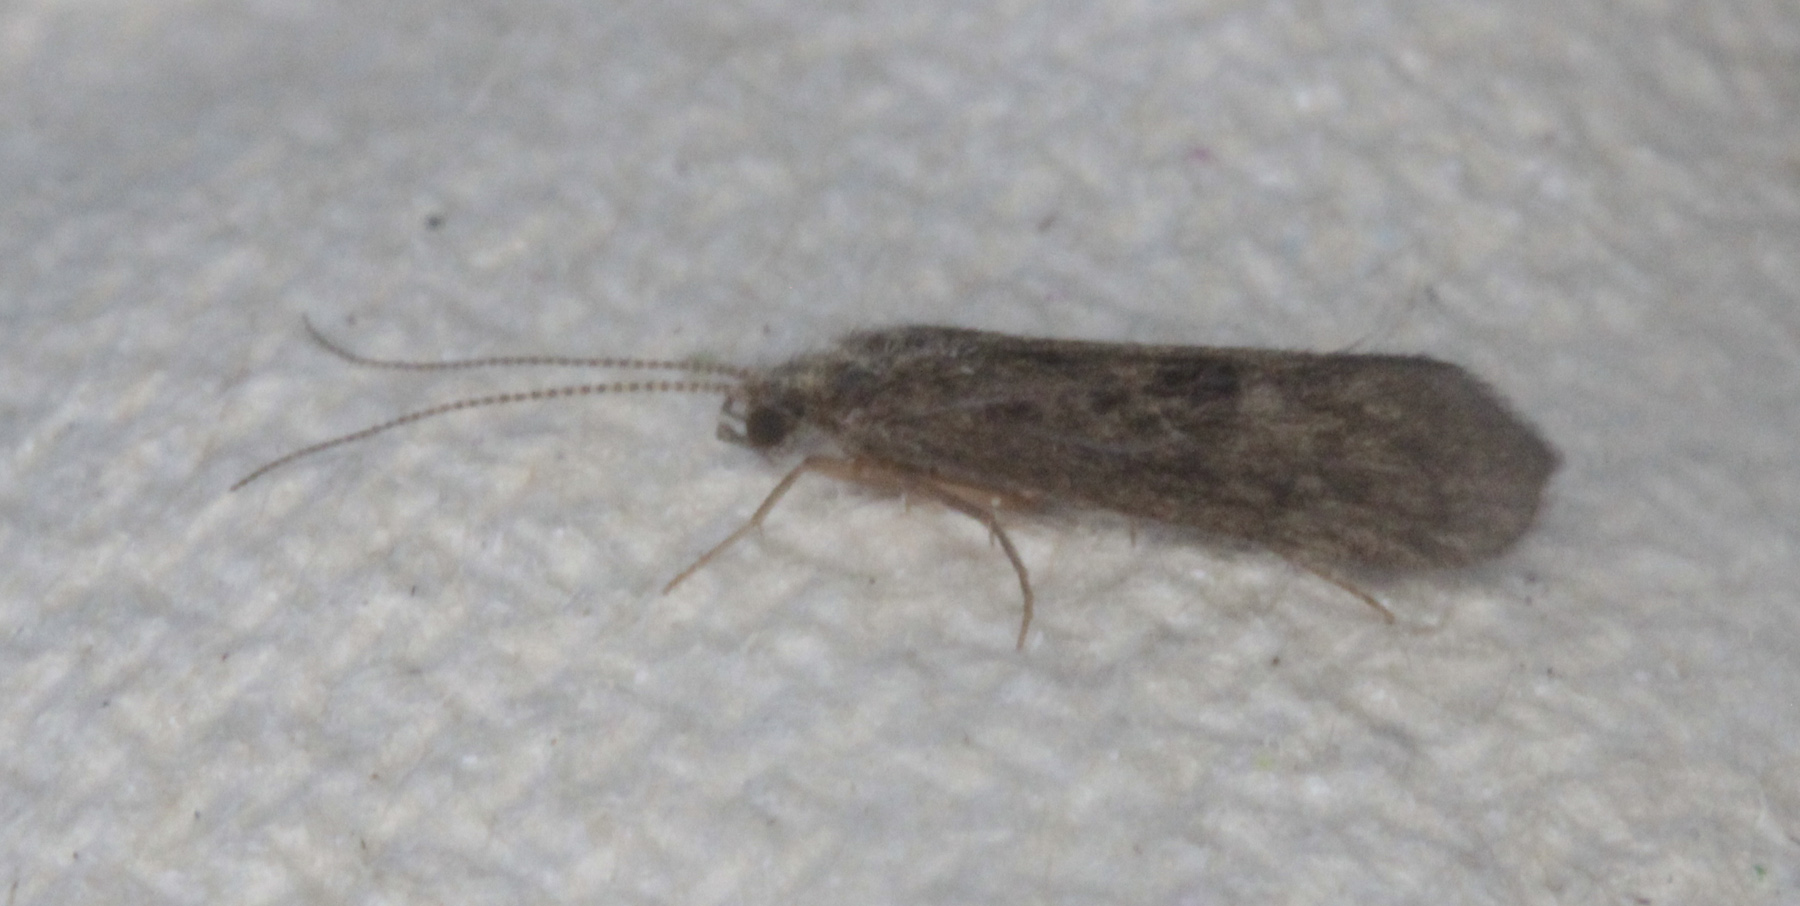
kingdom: Animalia
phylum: Arthropoda
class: Insecta
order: Trichoptera
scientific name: Trichoptera
